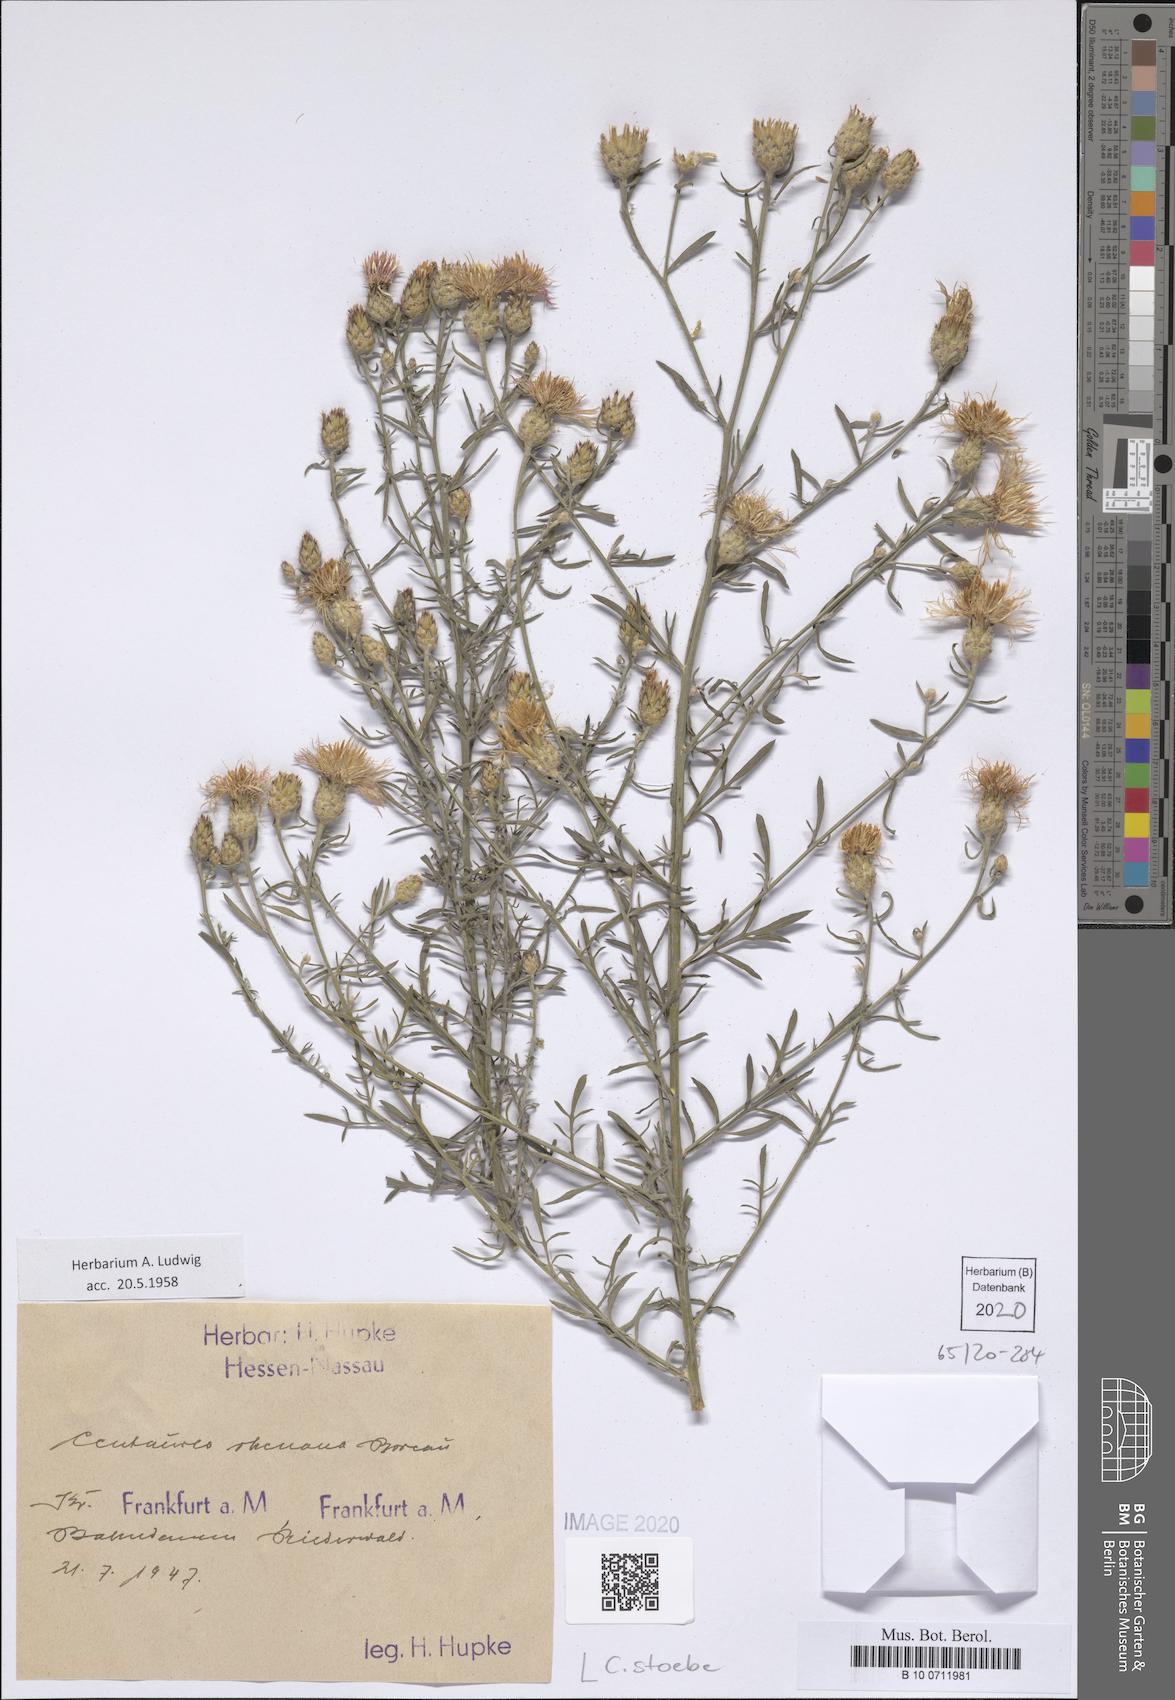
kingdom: Plantae
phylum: Tracheophyta
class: Magnoliopsida
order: Asterales
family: Asteraceae
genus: Centaurea
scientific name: Centaurea stoebe
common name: Spotted knapweed
